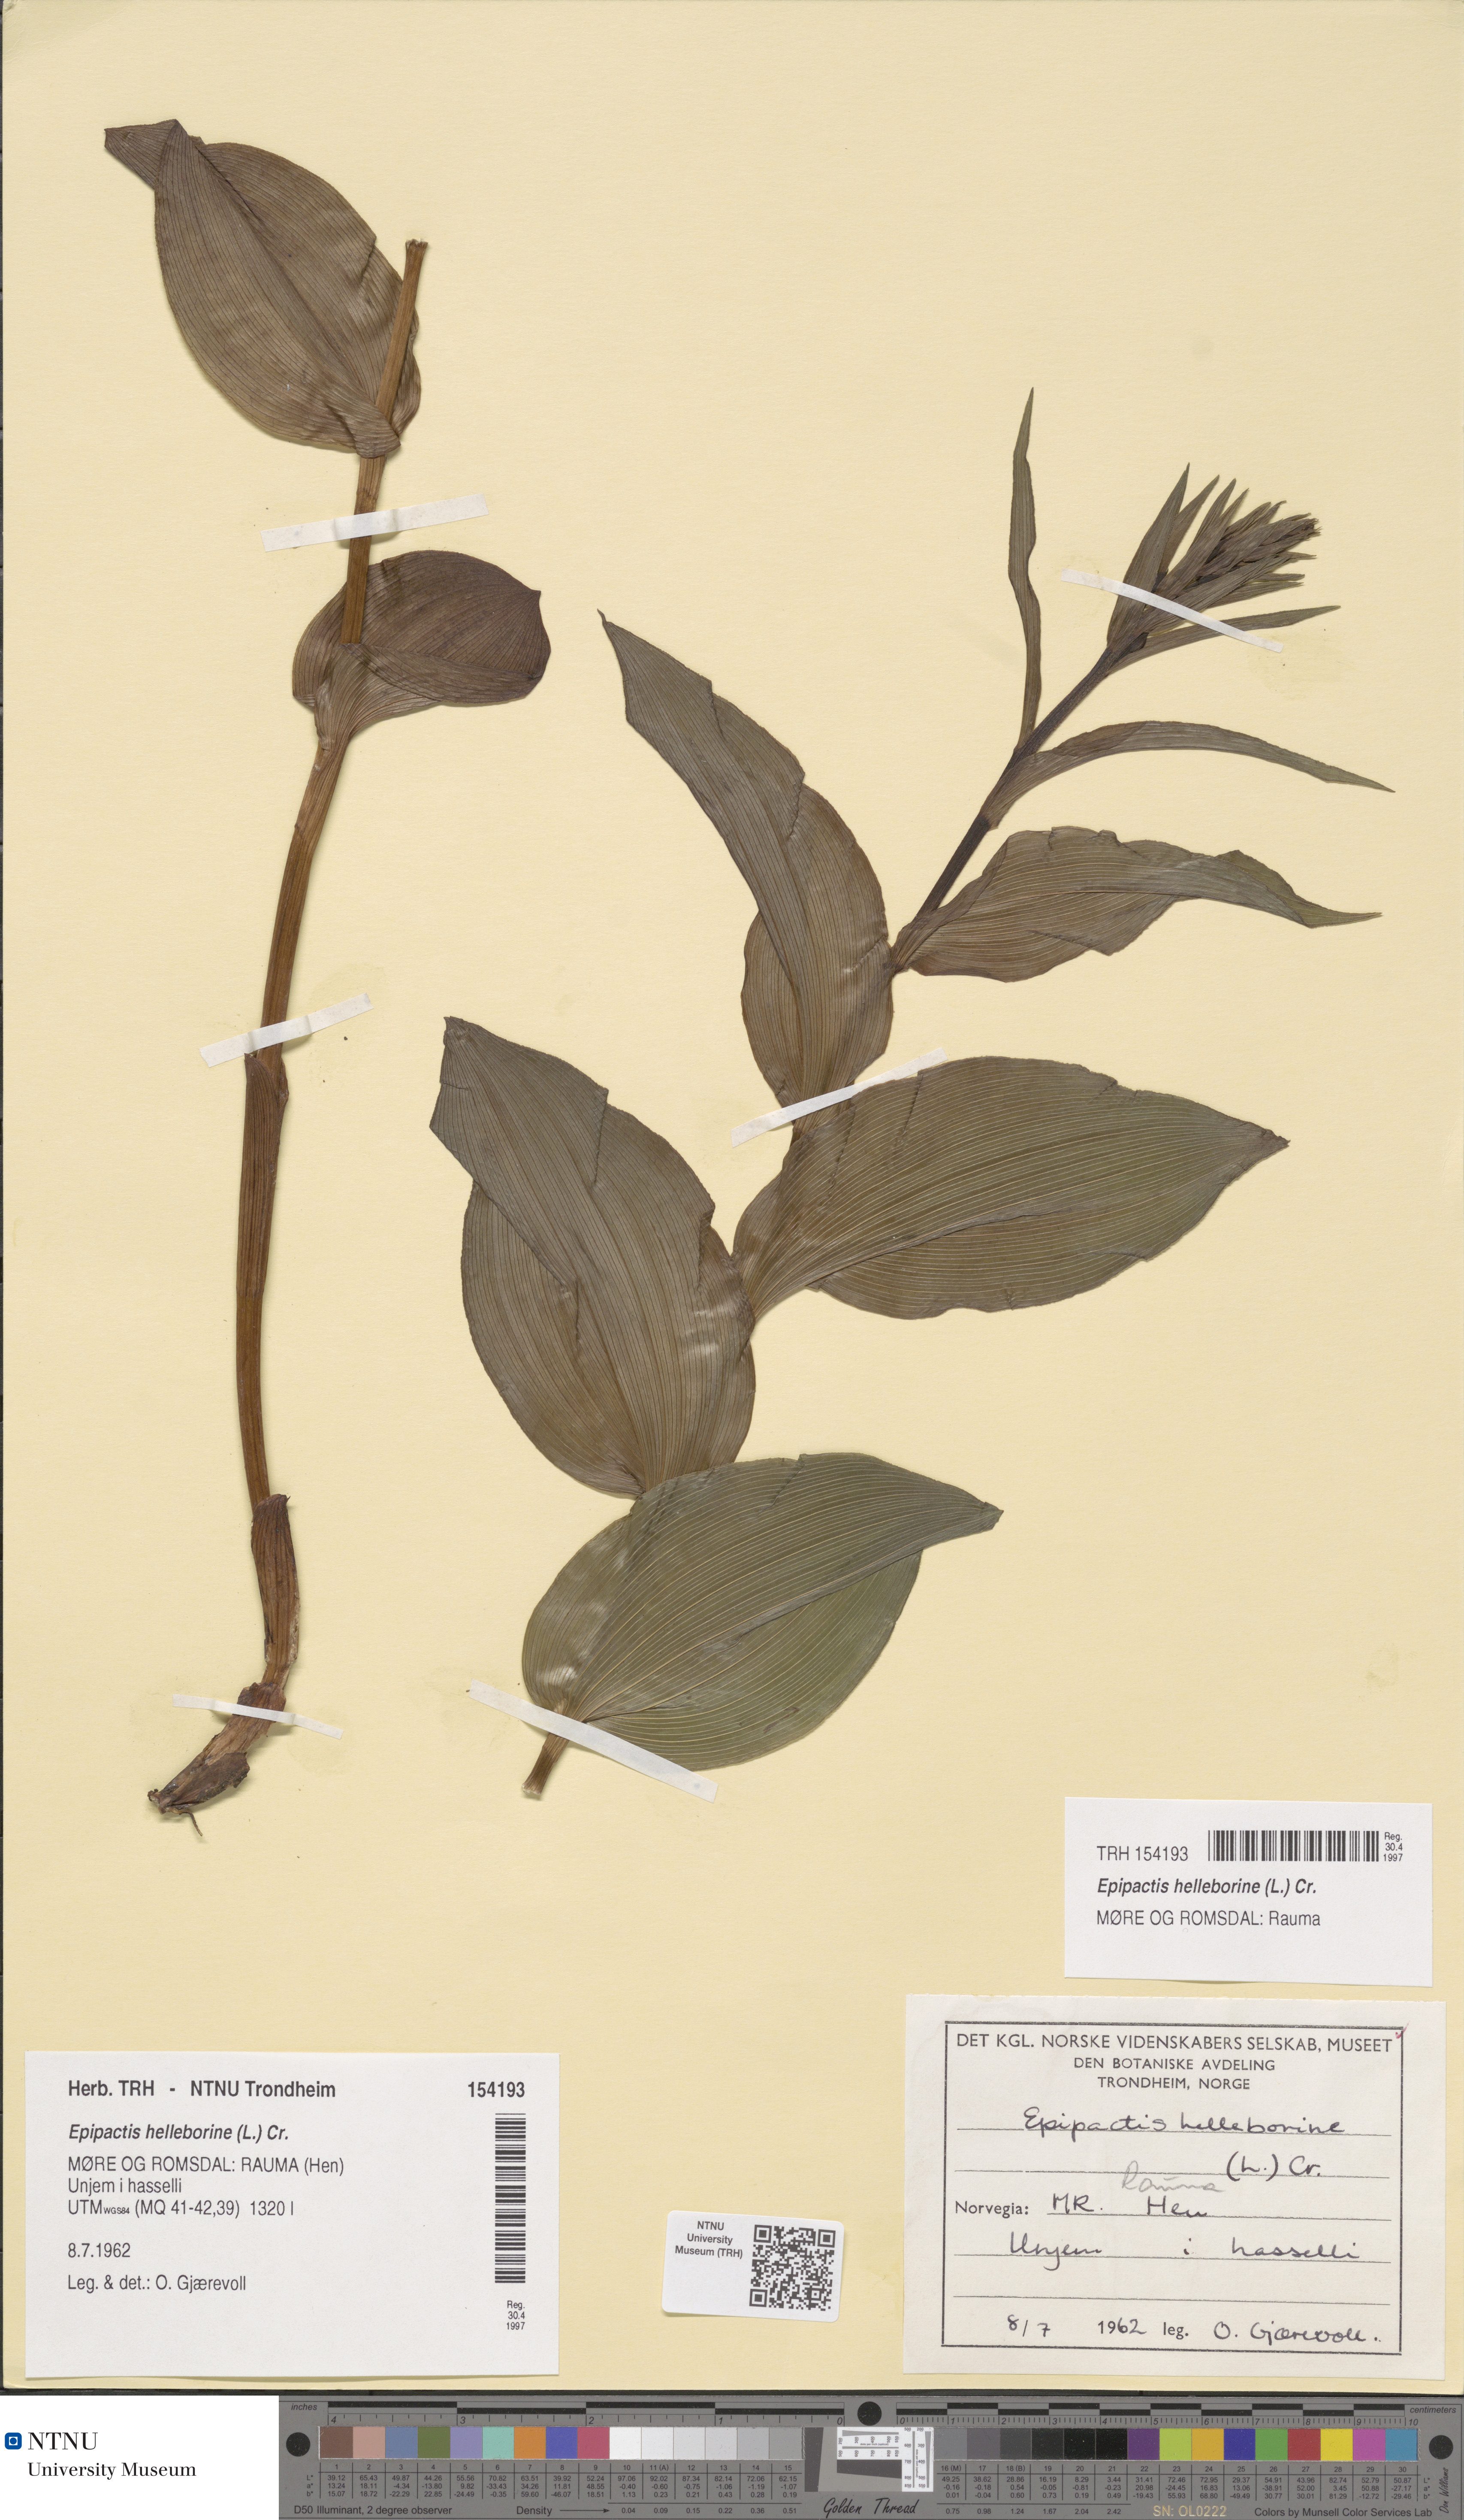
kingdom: Plantae
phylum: Tracheophyta
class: Liliopsida
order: Asparagales
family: Orchidaceae
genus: Epipactis
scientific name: Epipactis helleborine
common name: Broad-leaved helleborine
